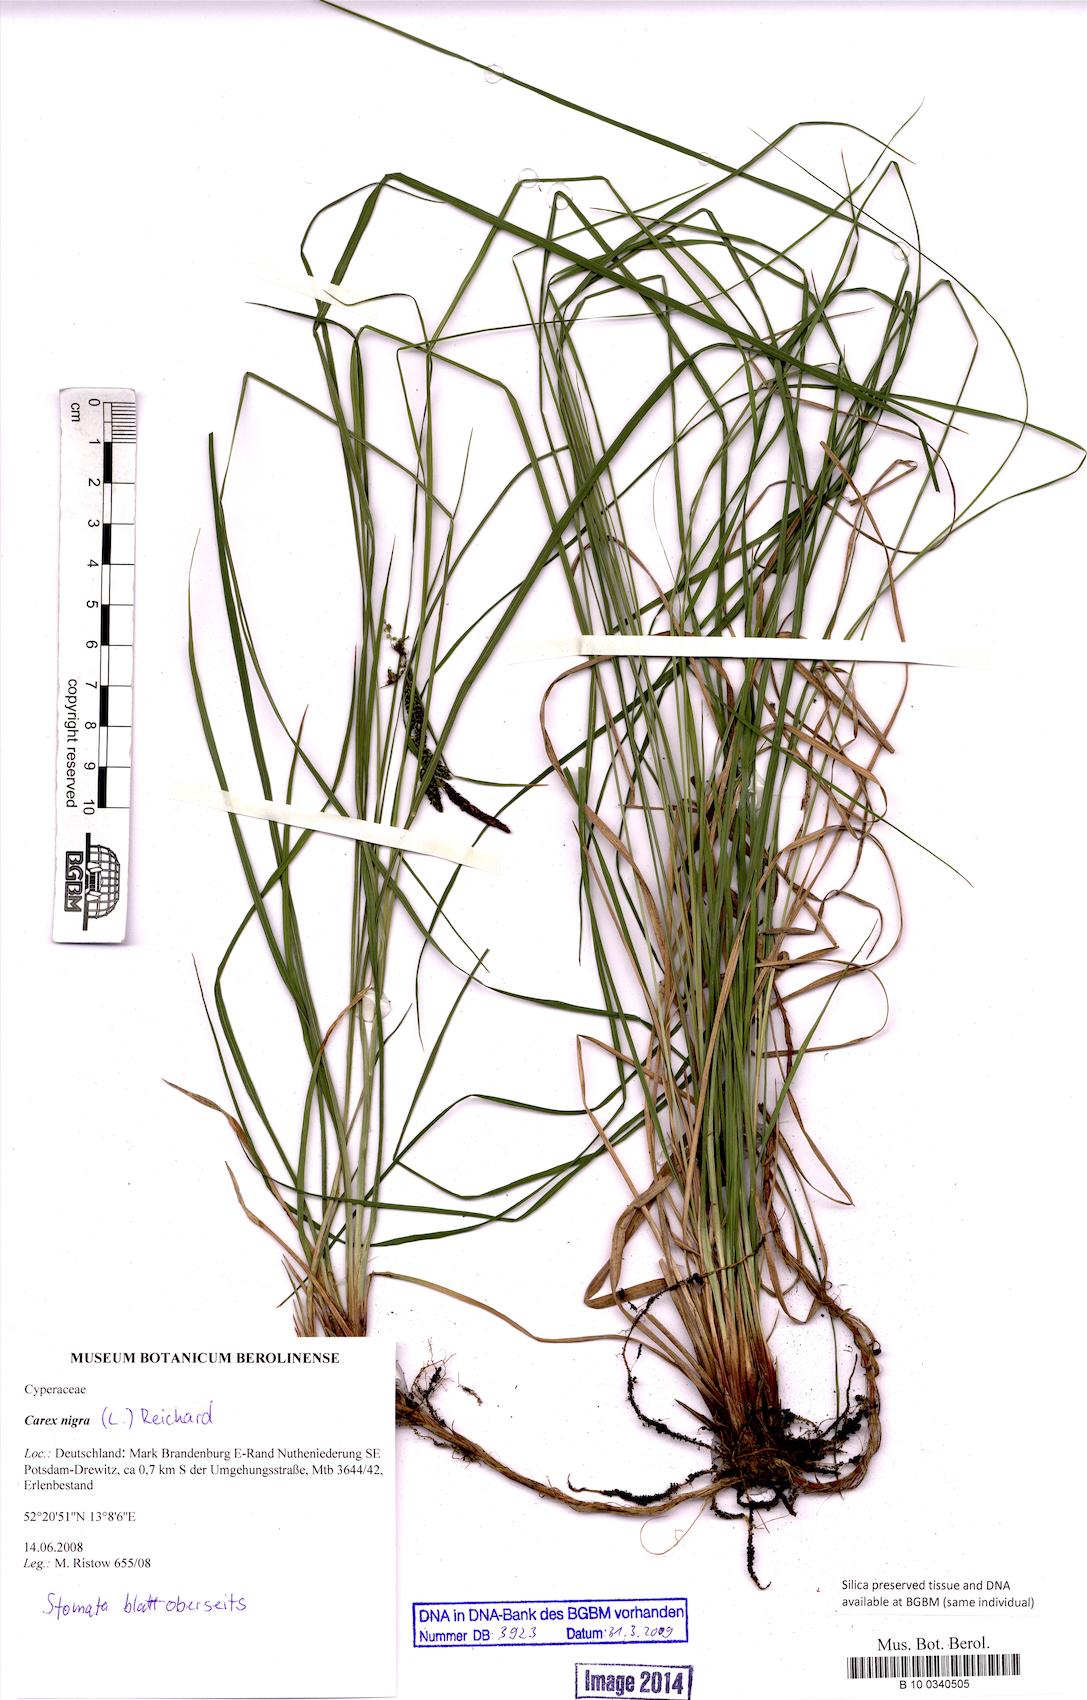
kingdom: Plantae
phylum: Tracheophyta
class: Liliopsida
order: Poales
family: Cyperaceae
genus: Carex
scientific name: Carex nigra
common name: Common sedge
